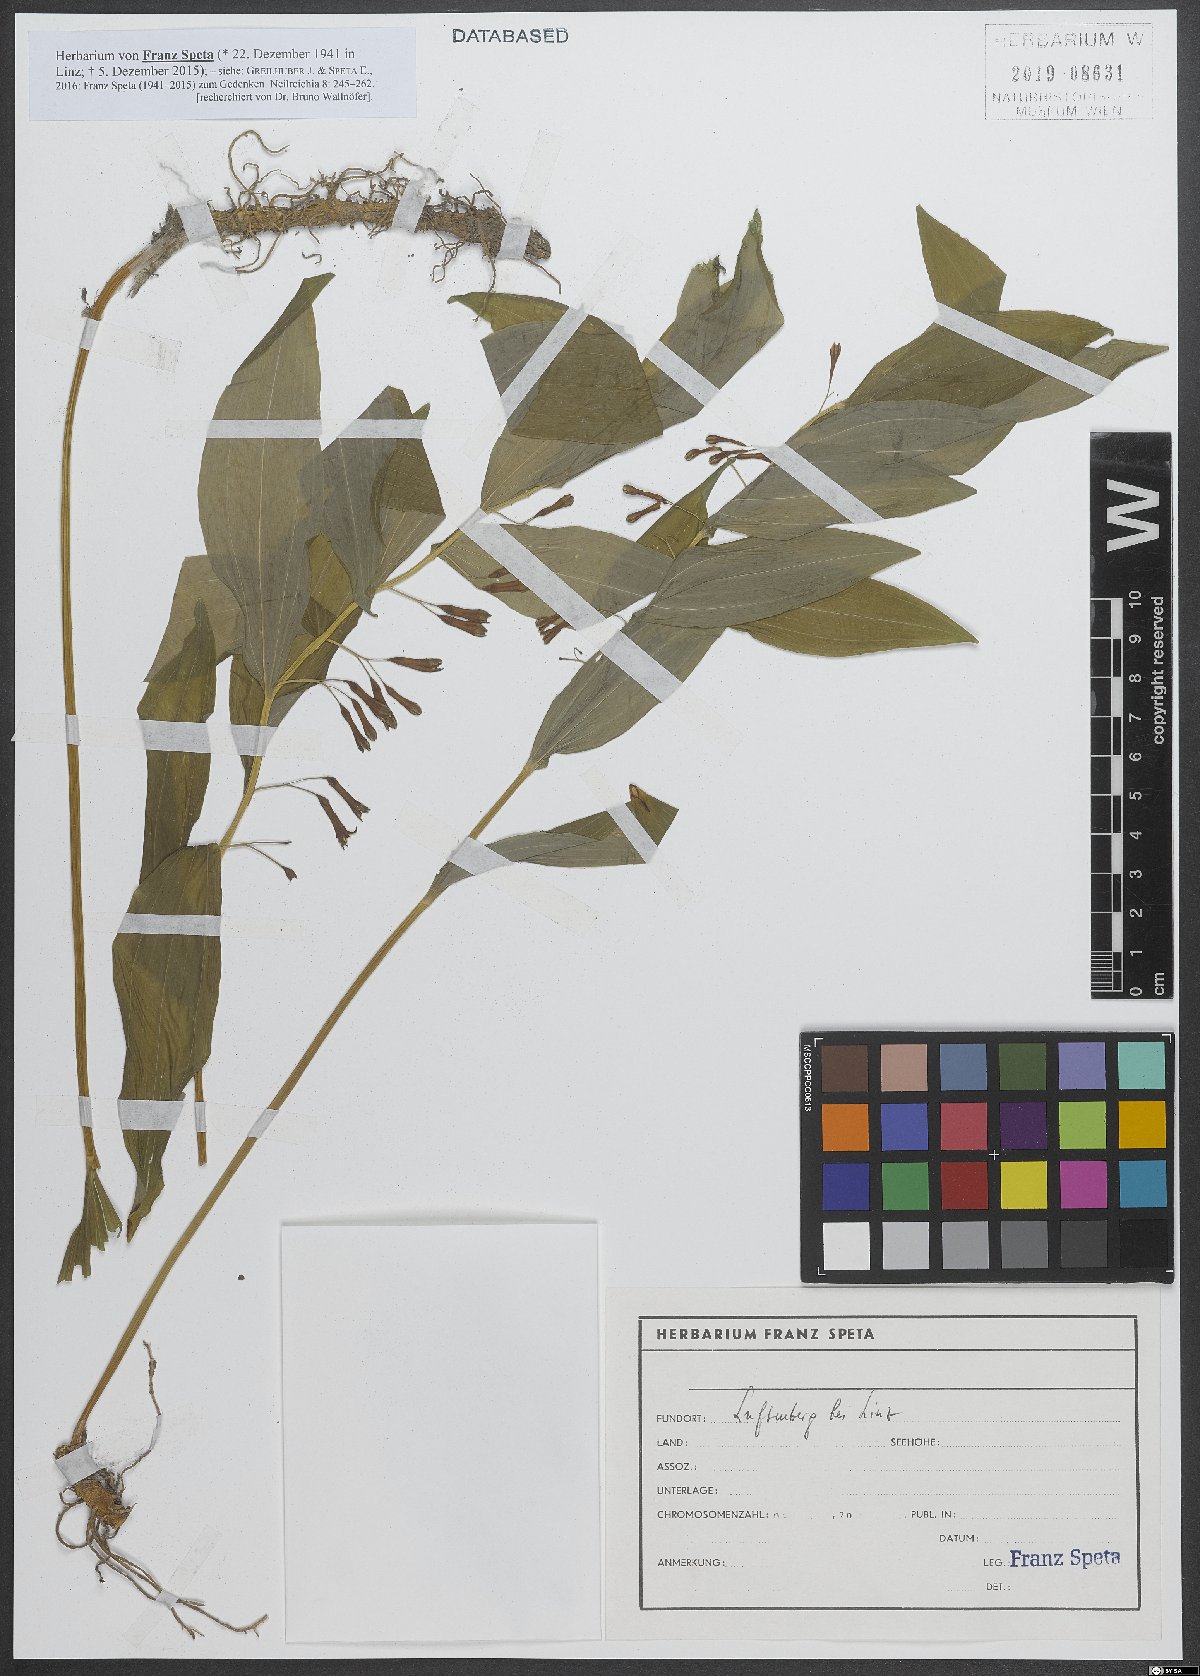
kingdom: Plantae
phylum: Tracheophyta
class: Liliopsida
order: Asparagales
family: Asparagaceae
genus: Polygonatum
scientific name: Polygonatum
